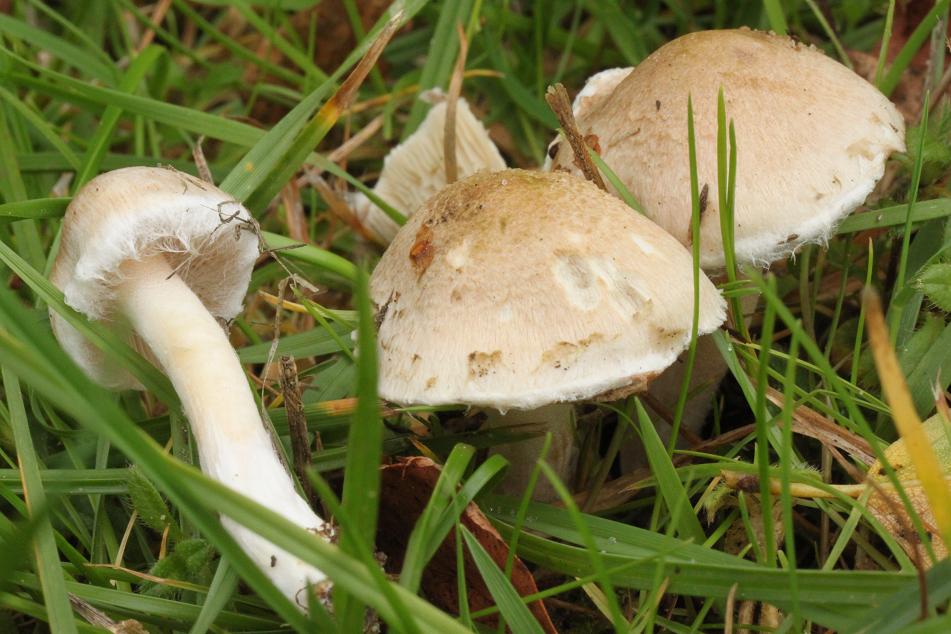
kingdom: Fungi
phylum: Basidiomycota
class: Agaricomycetes
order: Agaricales
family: Inocybaceae
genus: Inocybe
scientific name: Inocybe
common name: trævlhat
